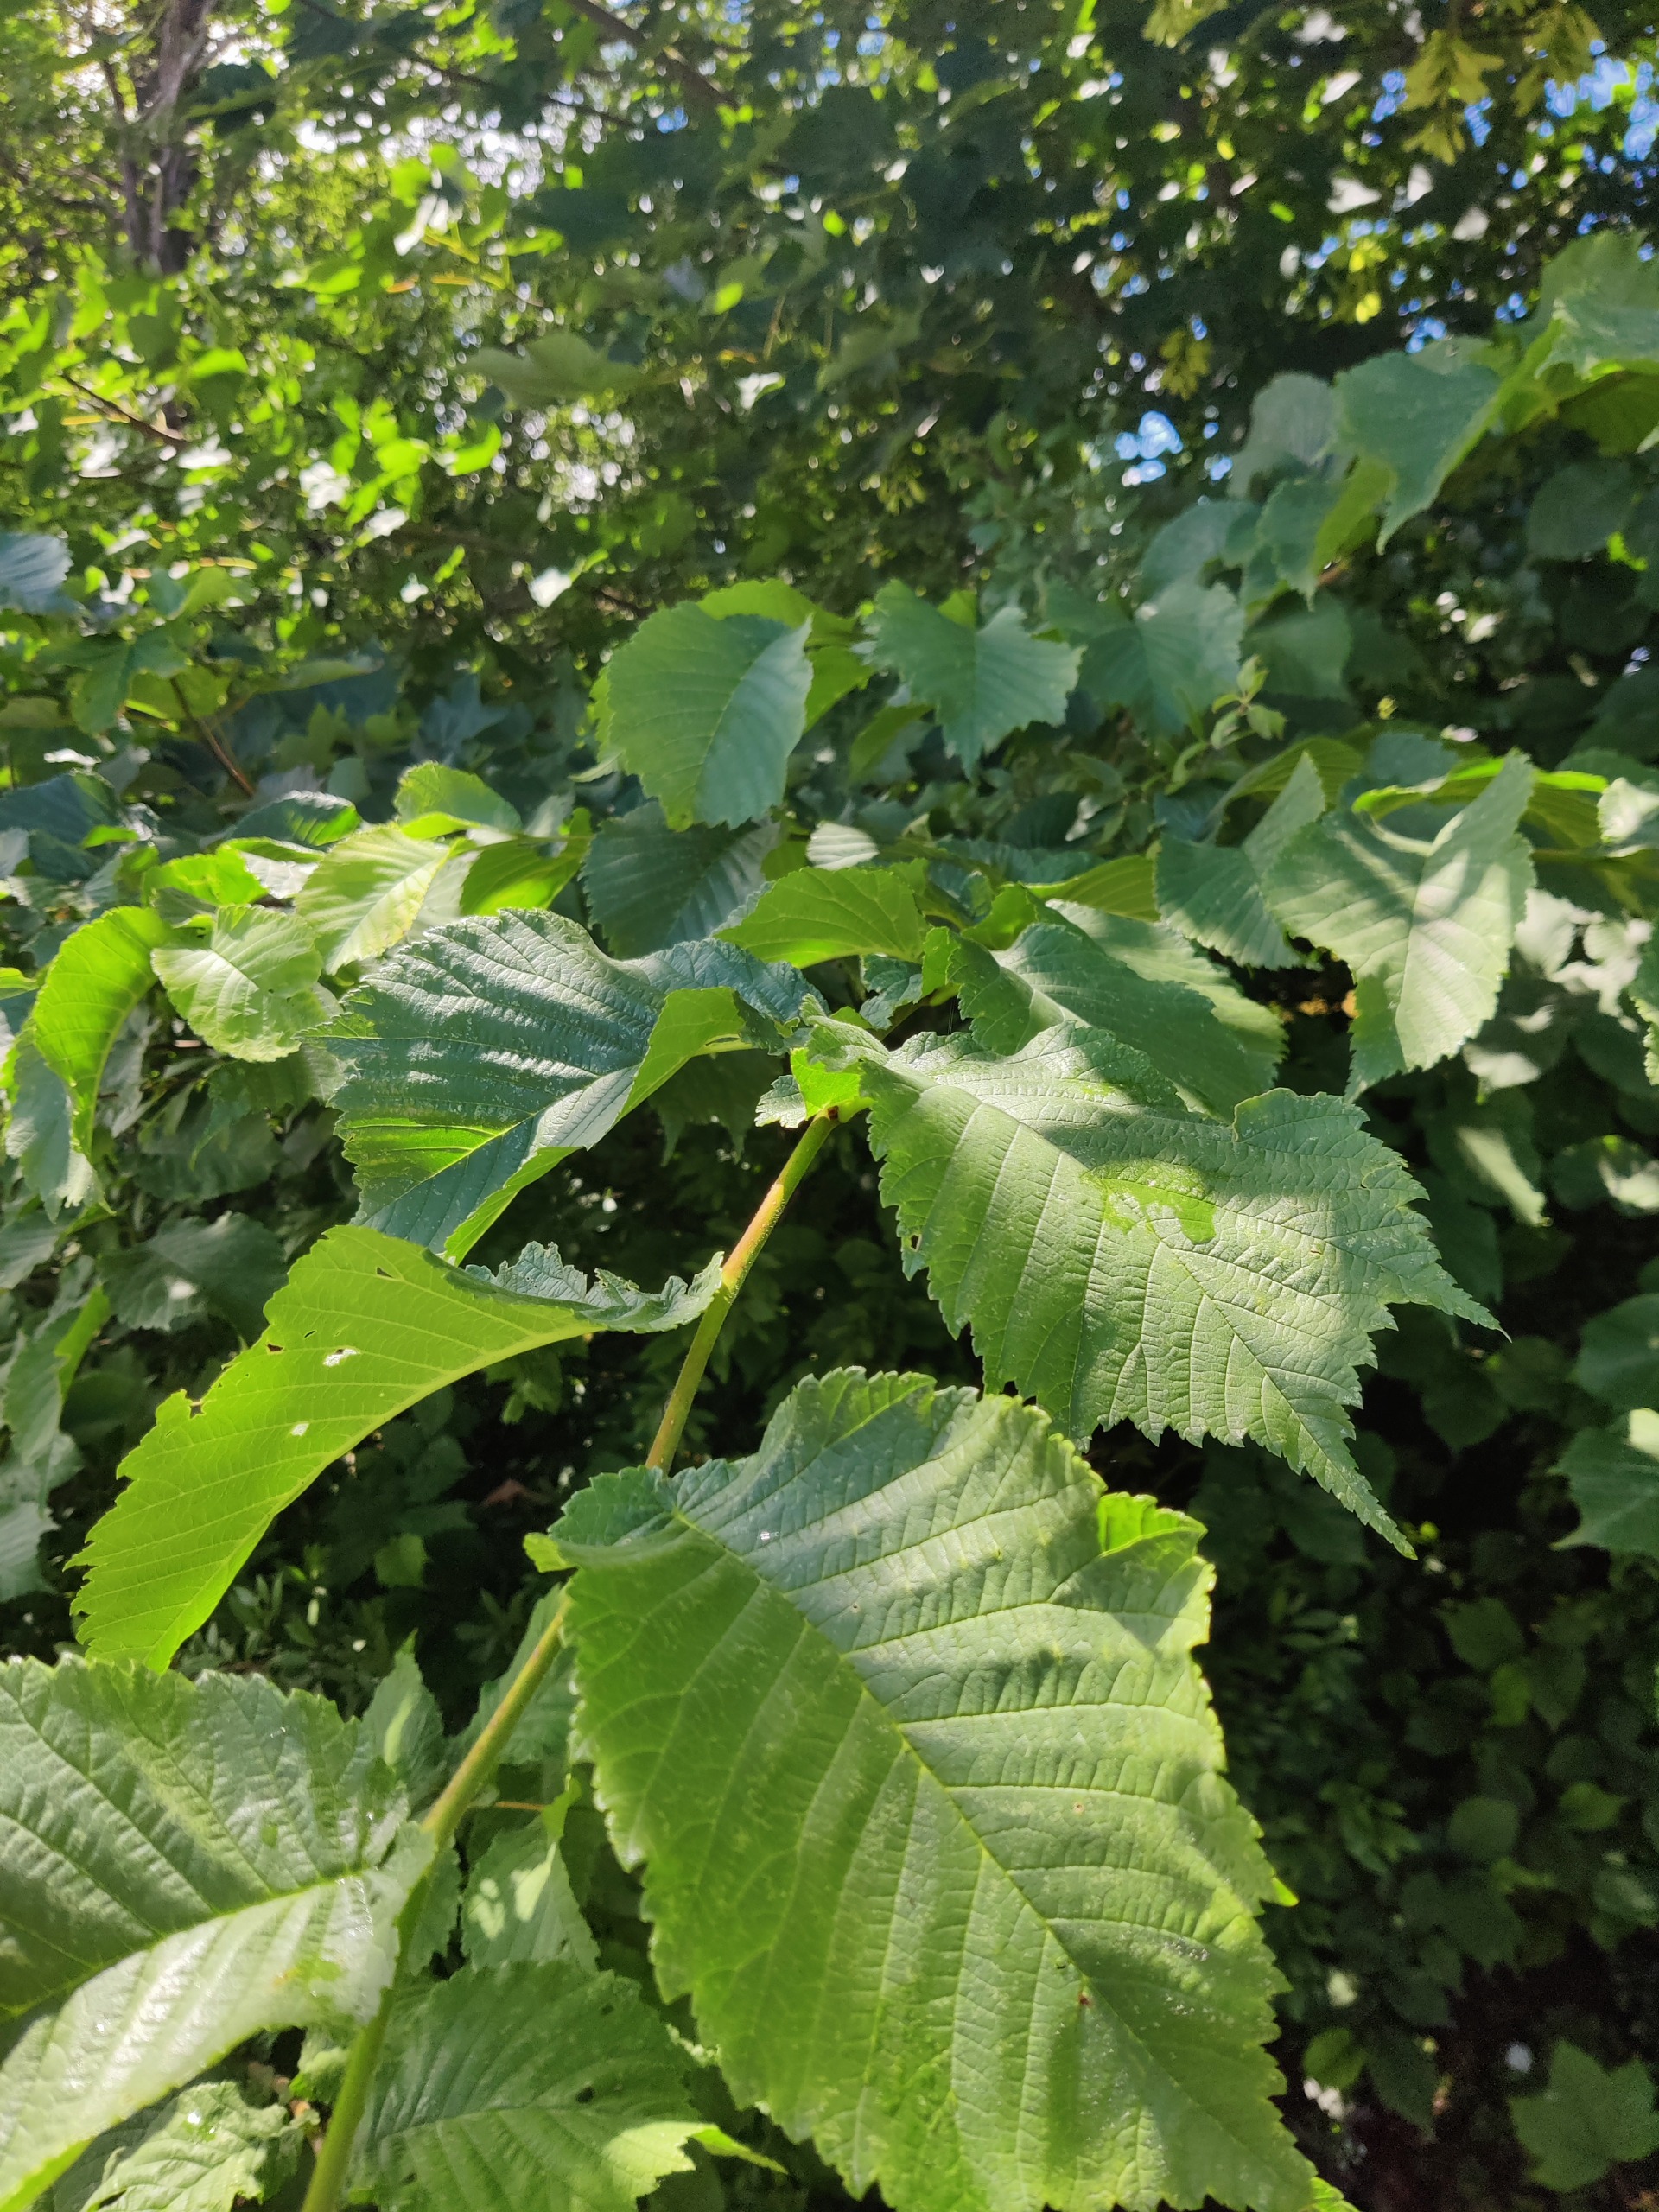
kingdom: Plantae
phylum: Tracheophyta
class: Magnoliopsida
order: Rosales
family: Ulmaceae
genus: Ulmus
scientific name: Ulmus glabra
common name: Skov-elm/storbladet elm
